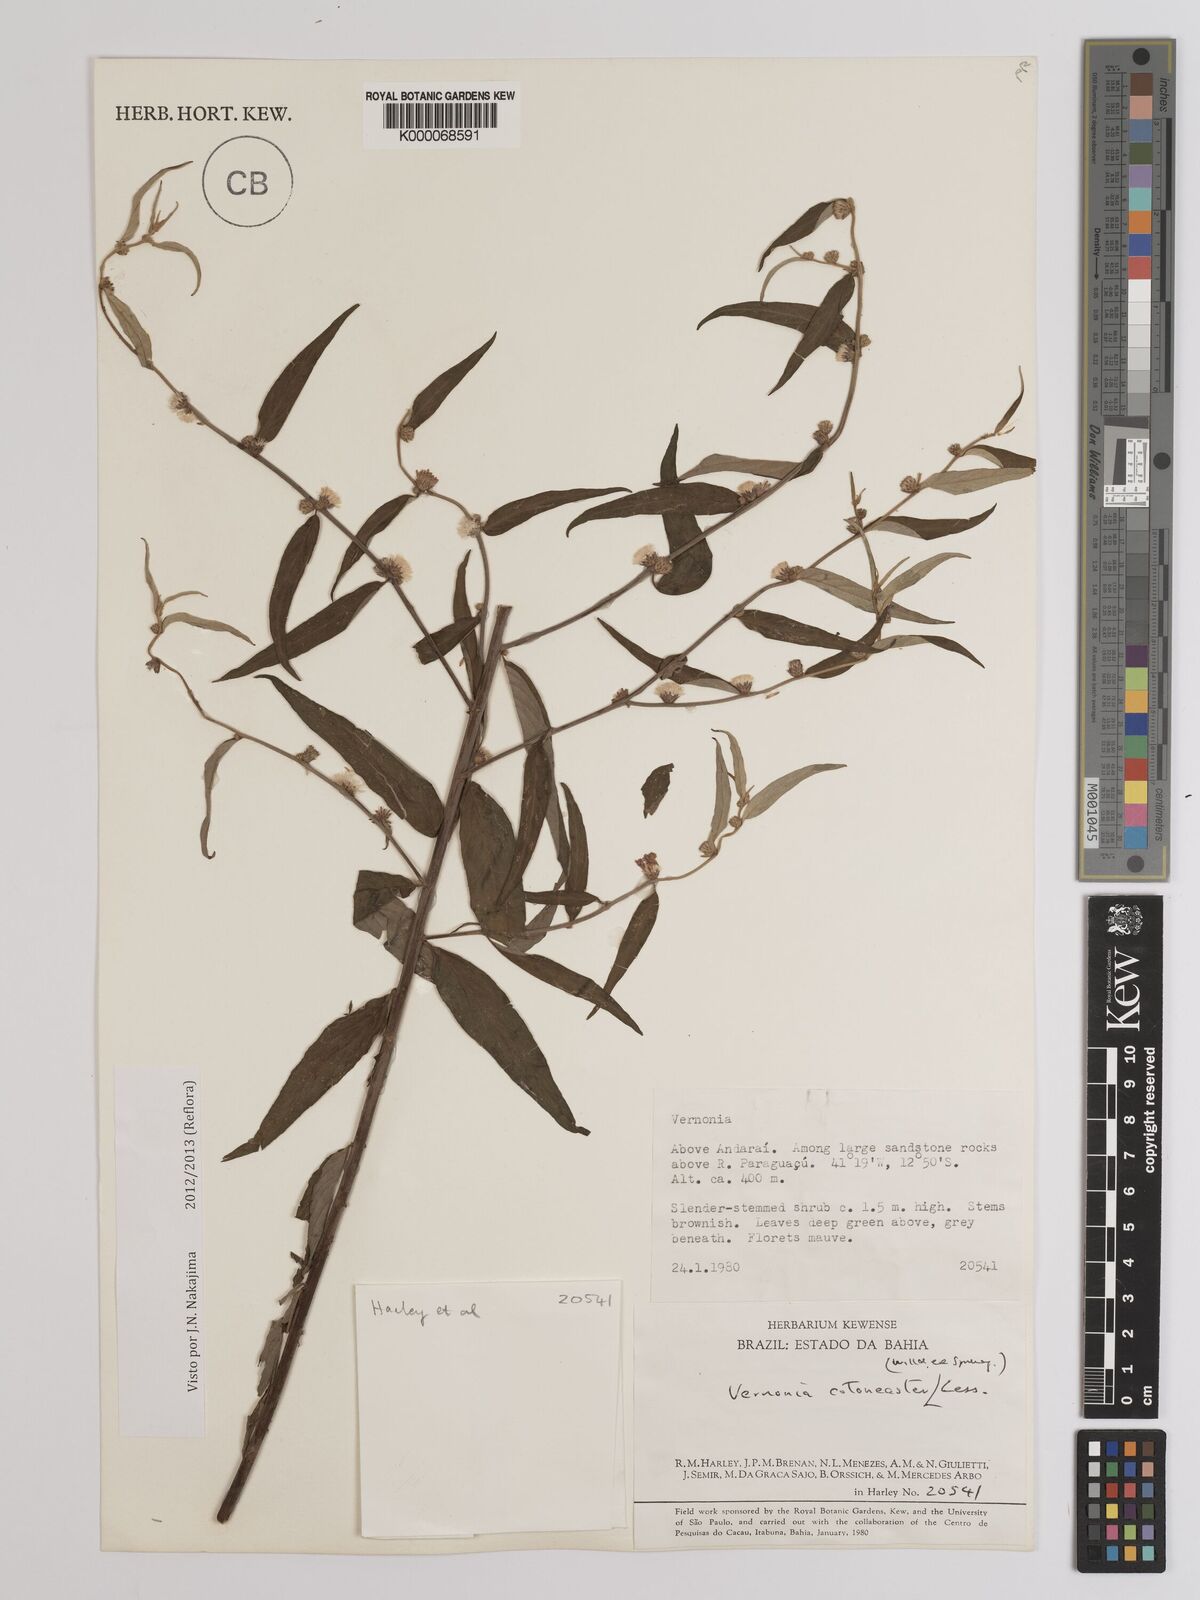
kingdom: Plantae
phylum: Tracheophyta
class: Magnoliopsida
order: Asterales
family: Asteraceae
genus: Lepidaploa
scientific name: Lepidaploa cotoneaster
